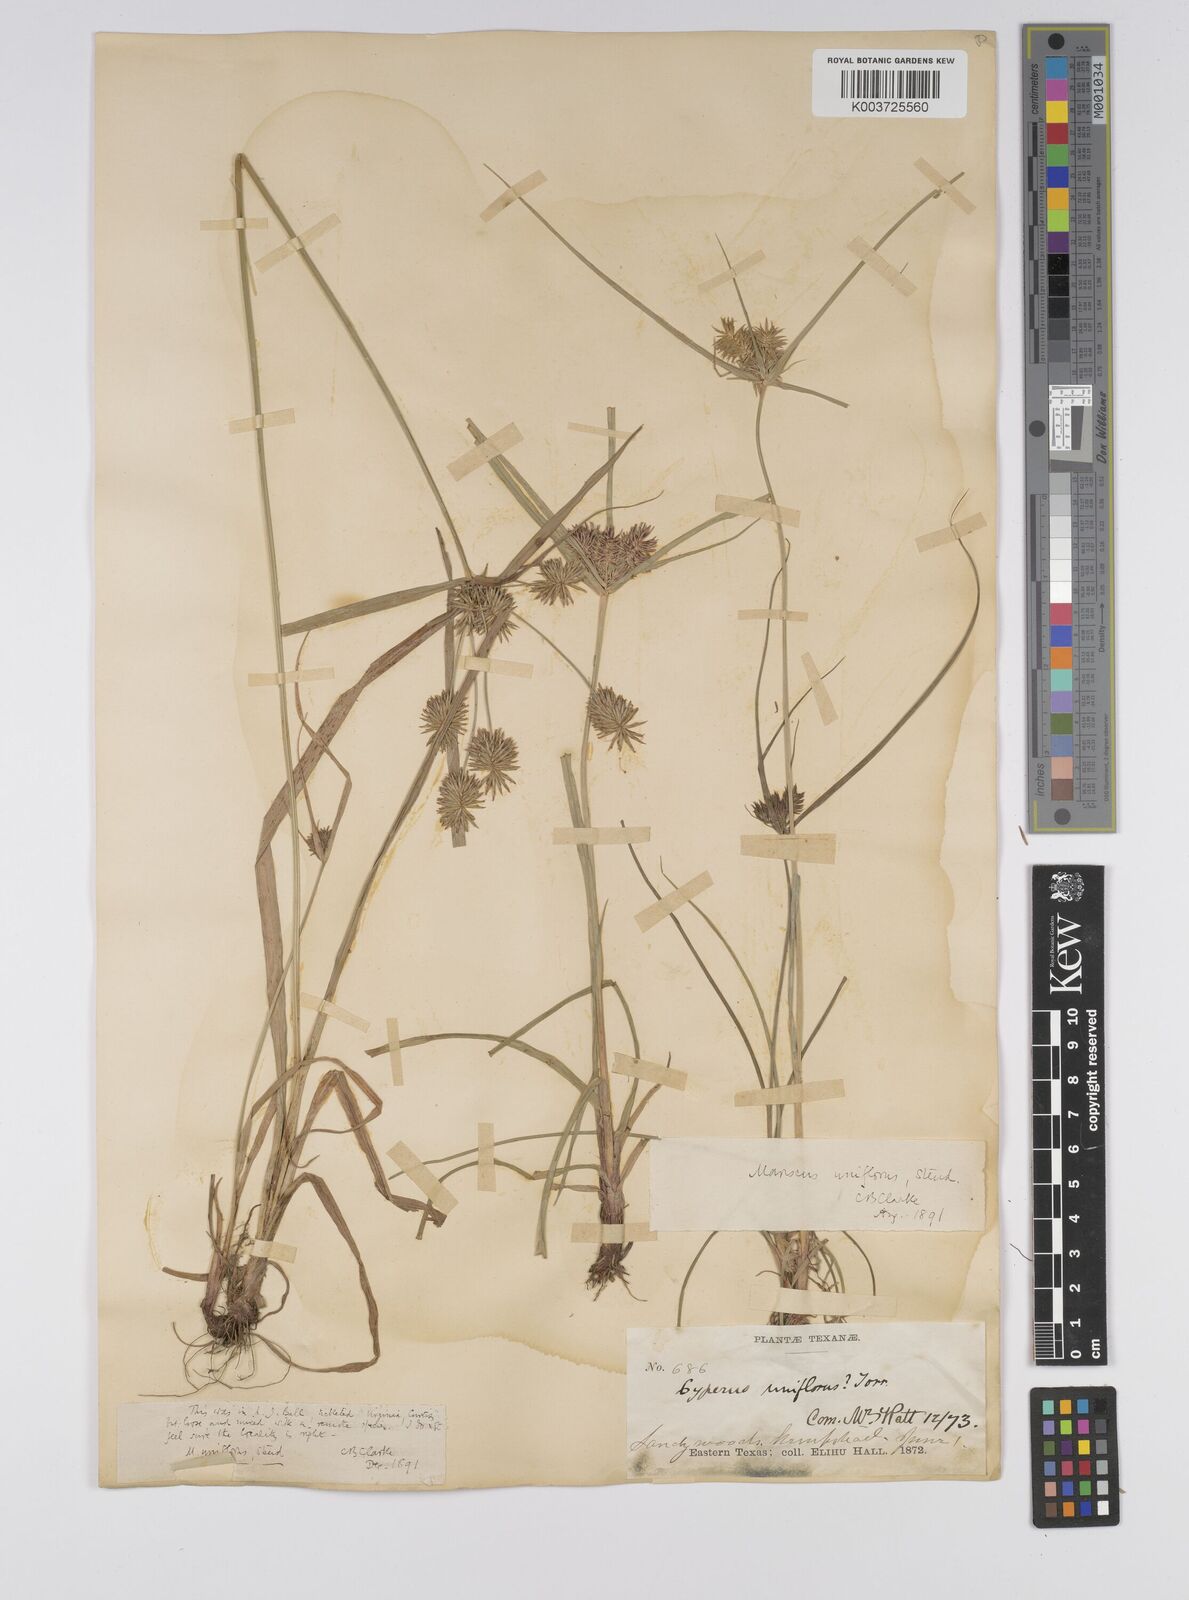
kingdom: Plantae
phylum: Tracheophyta
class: Liliopsida
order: Poales
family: Cyperaceae
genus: Cyperus
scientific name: Cyperus retroflexus
